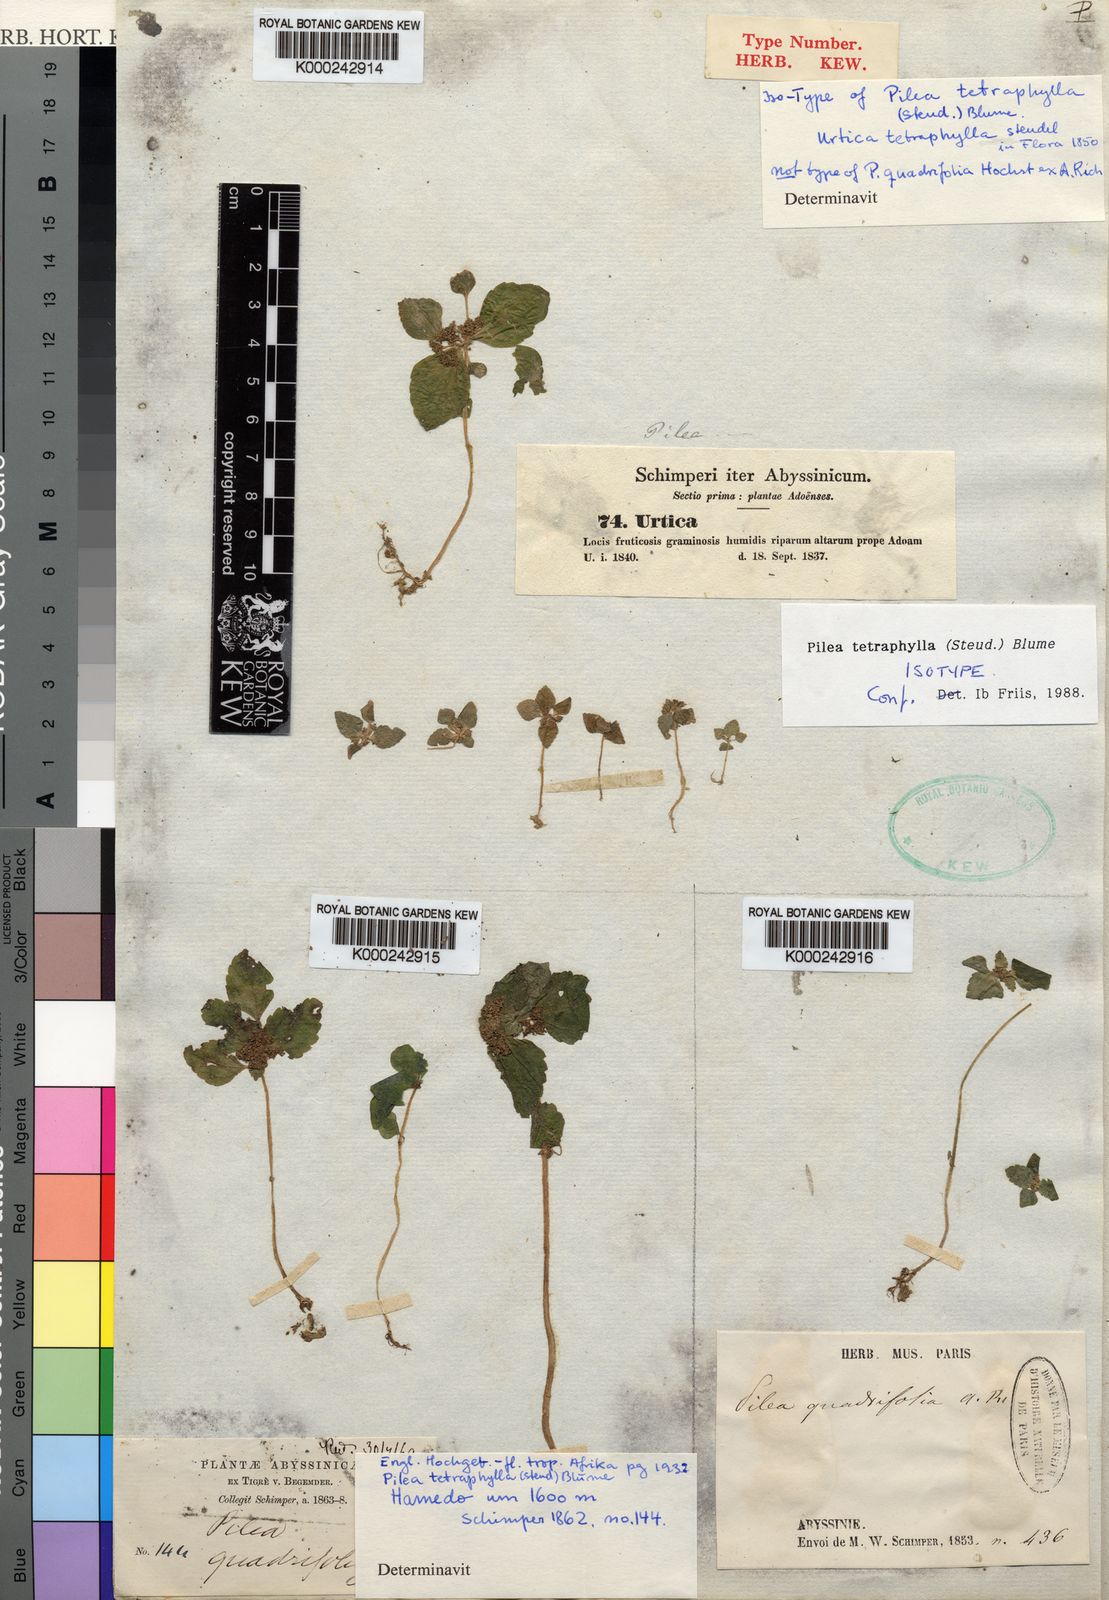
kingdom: Plantae
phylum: Tracheophyta
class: Magnoliopsida
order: Rosales
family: Urticaceae
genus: Pilea
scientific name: Pilea tetraphylla
